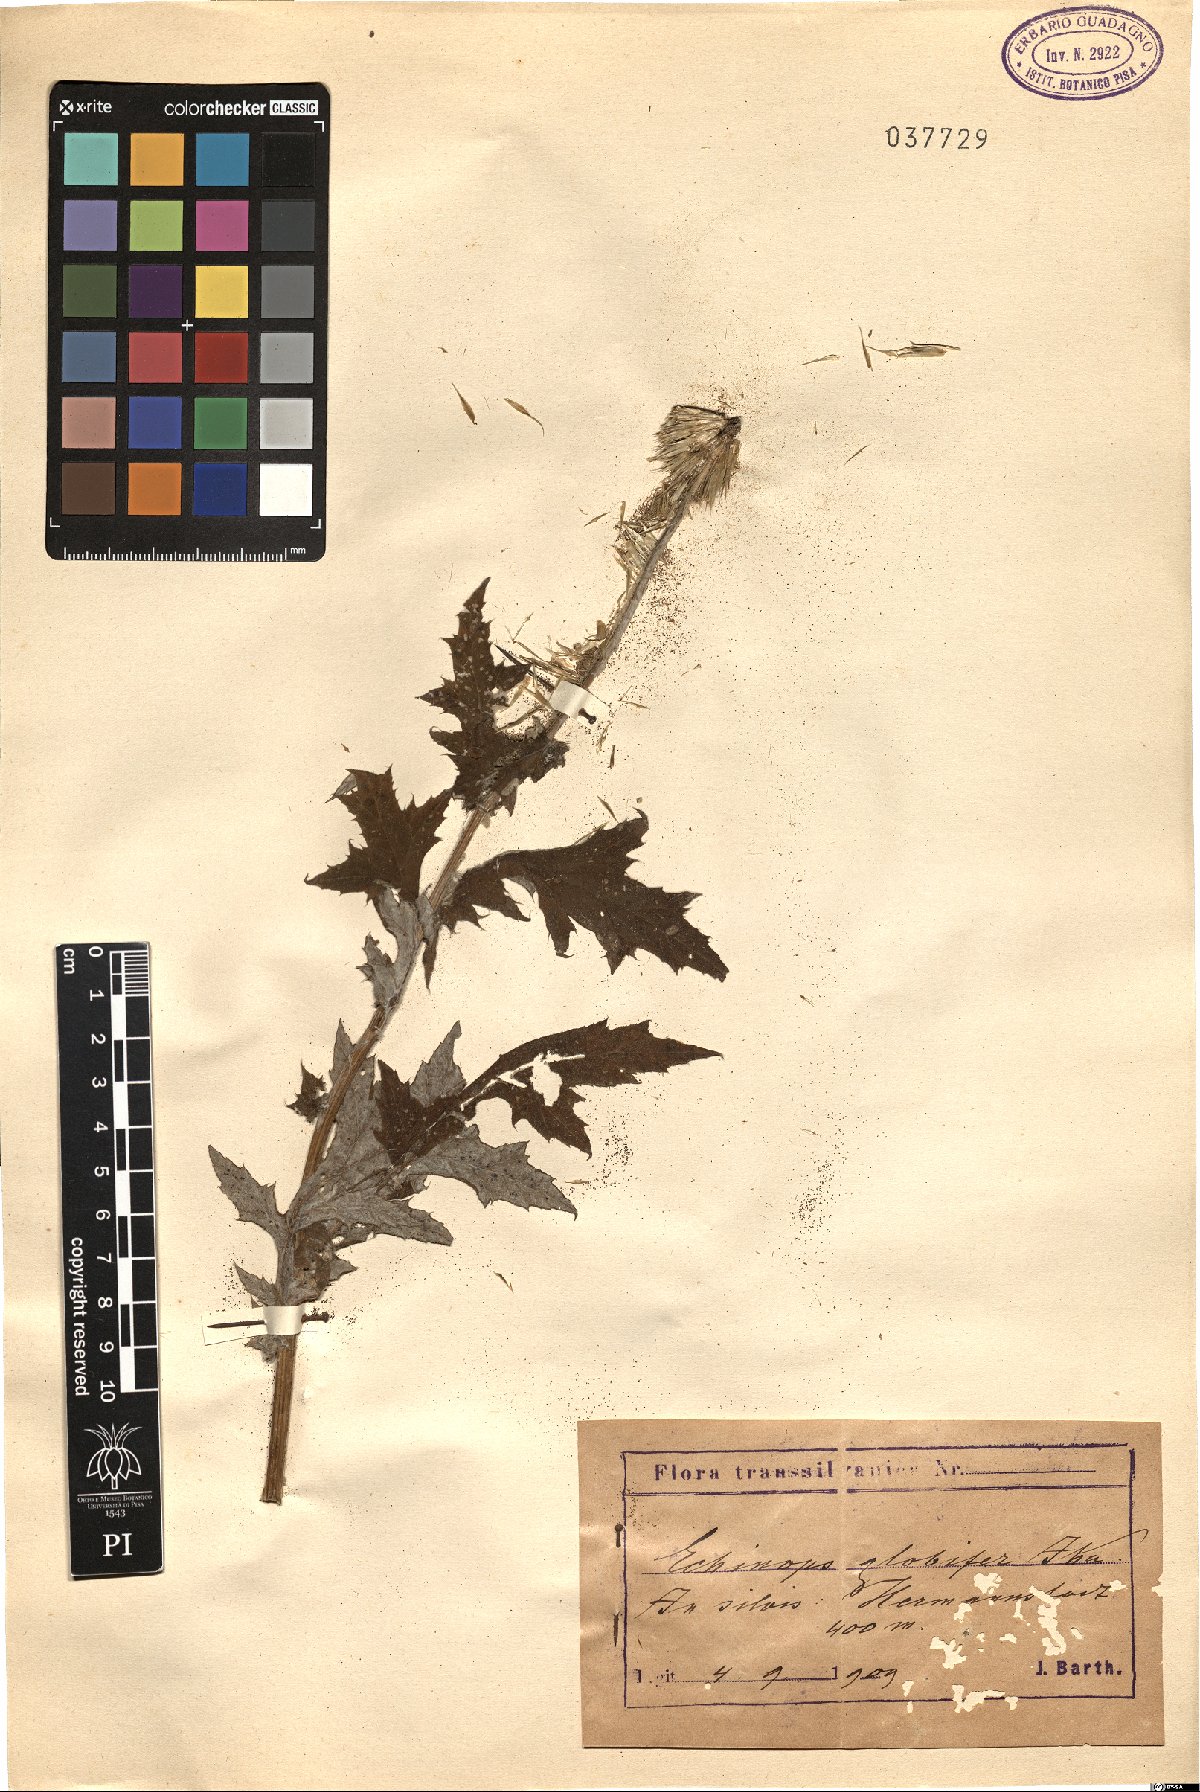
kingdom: Plantae
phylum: Tracheophyta
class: Magnoliopsida
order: Asterales
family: Asteraceae
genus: Echinops
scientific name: Echinops exaltatus
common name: Globe-thistle
